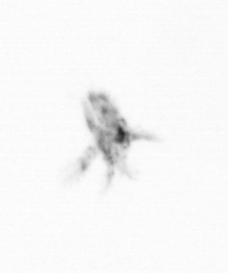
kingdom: Animalia
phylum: Arthropoda
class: Copepoda
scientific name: Copepoda
